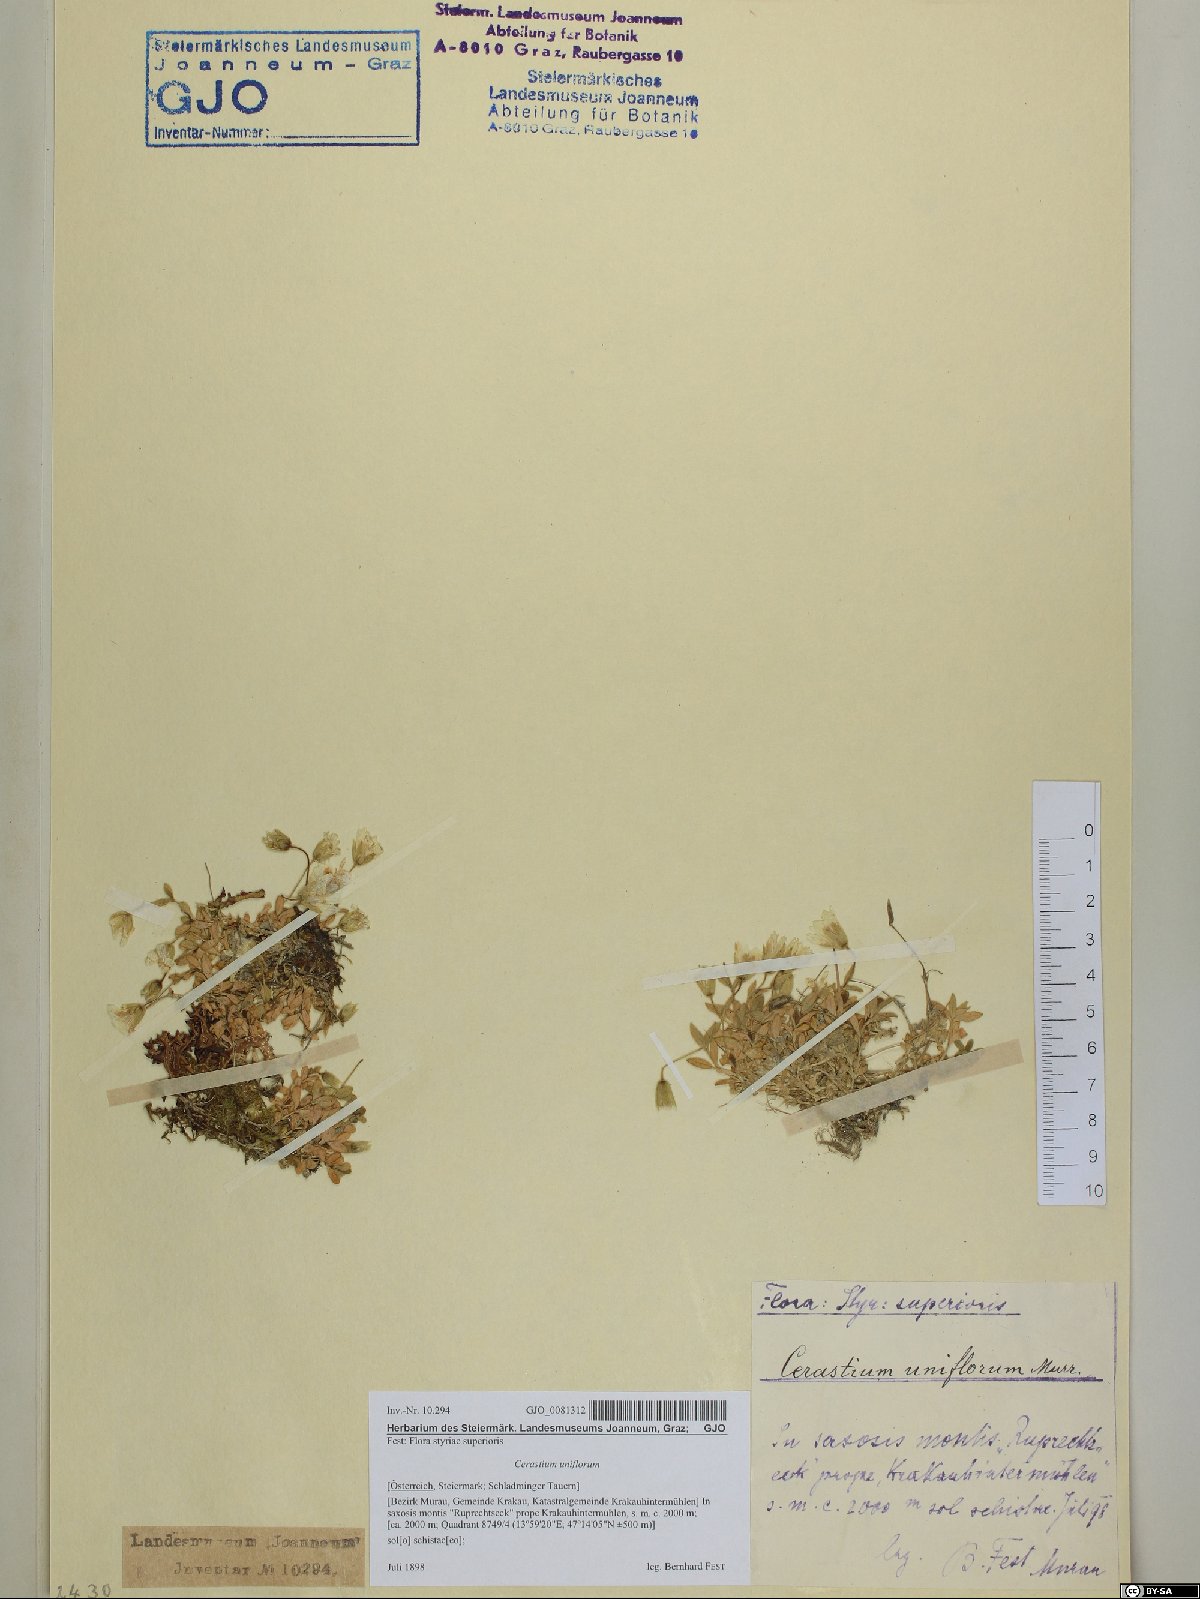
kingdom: Plantae
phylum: Tracheophyta
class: Magnoliopsida
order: Caryophyllales
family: Caryophyllaceae
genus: Cerastium
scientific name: Cerastium uniflorum
